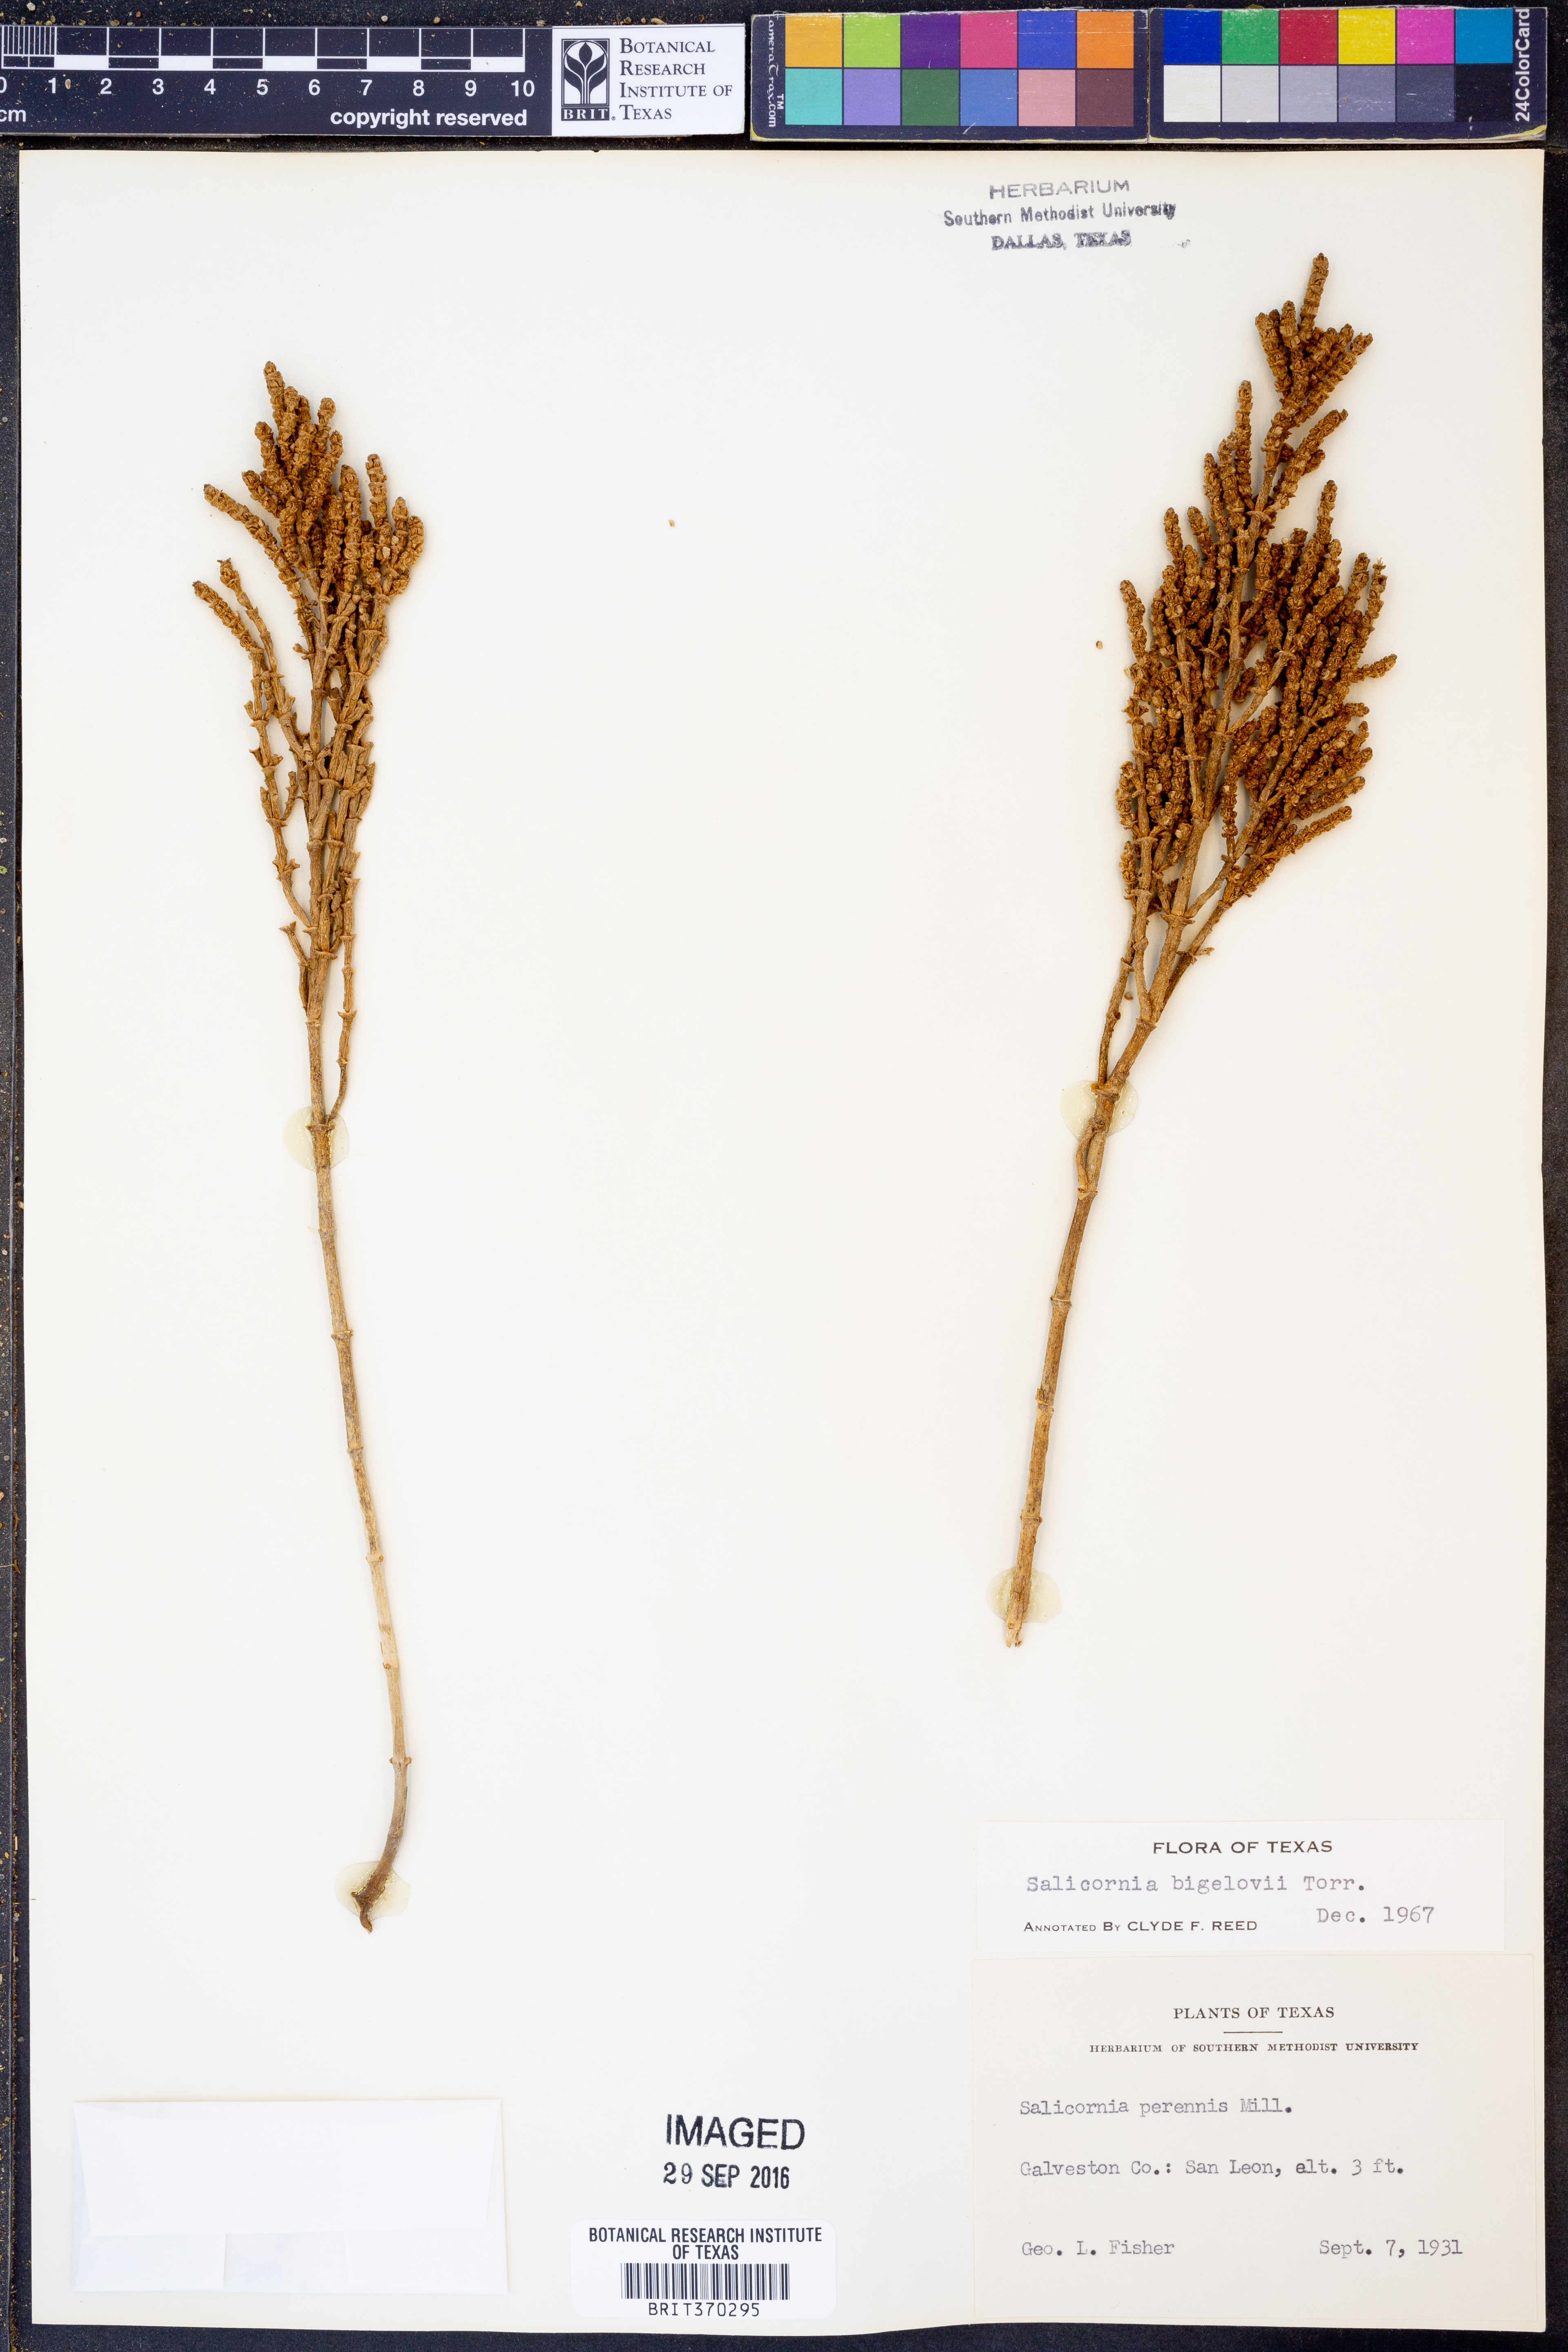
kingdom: Plantae
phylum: Tracheophyta
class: Magnoliopsida
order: Caryophyllales
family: Amaranthaceae
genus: Salicornia
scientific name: Salicornia bigelovii
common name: Dwarf glasswort
